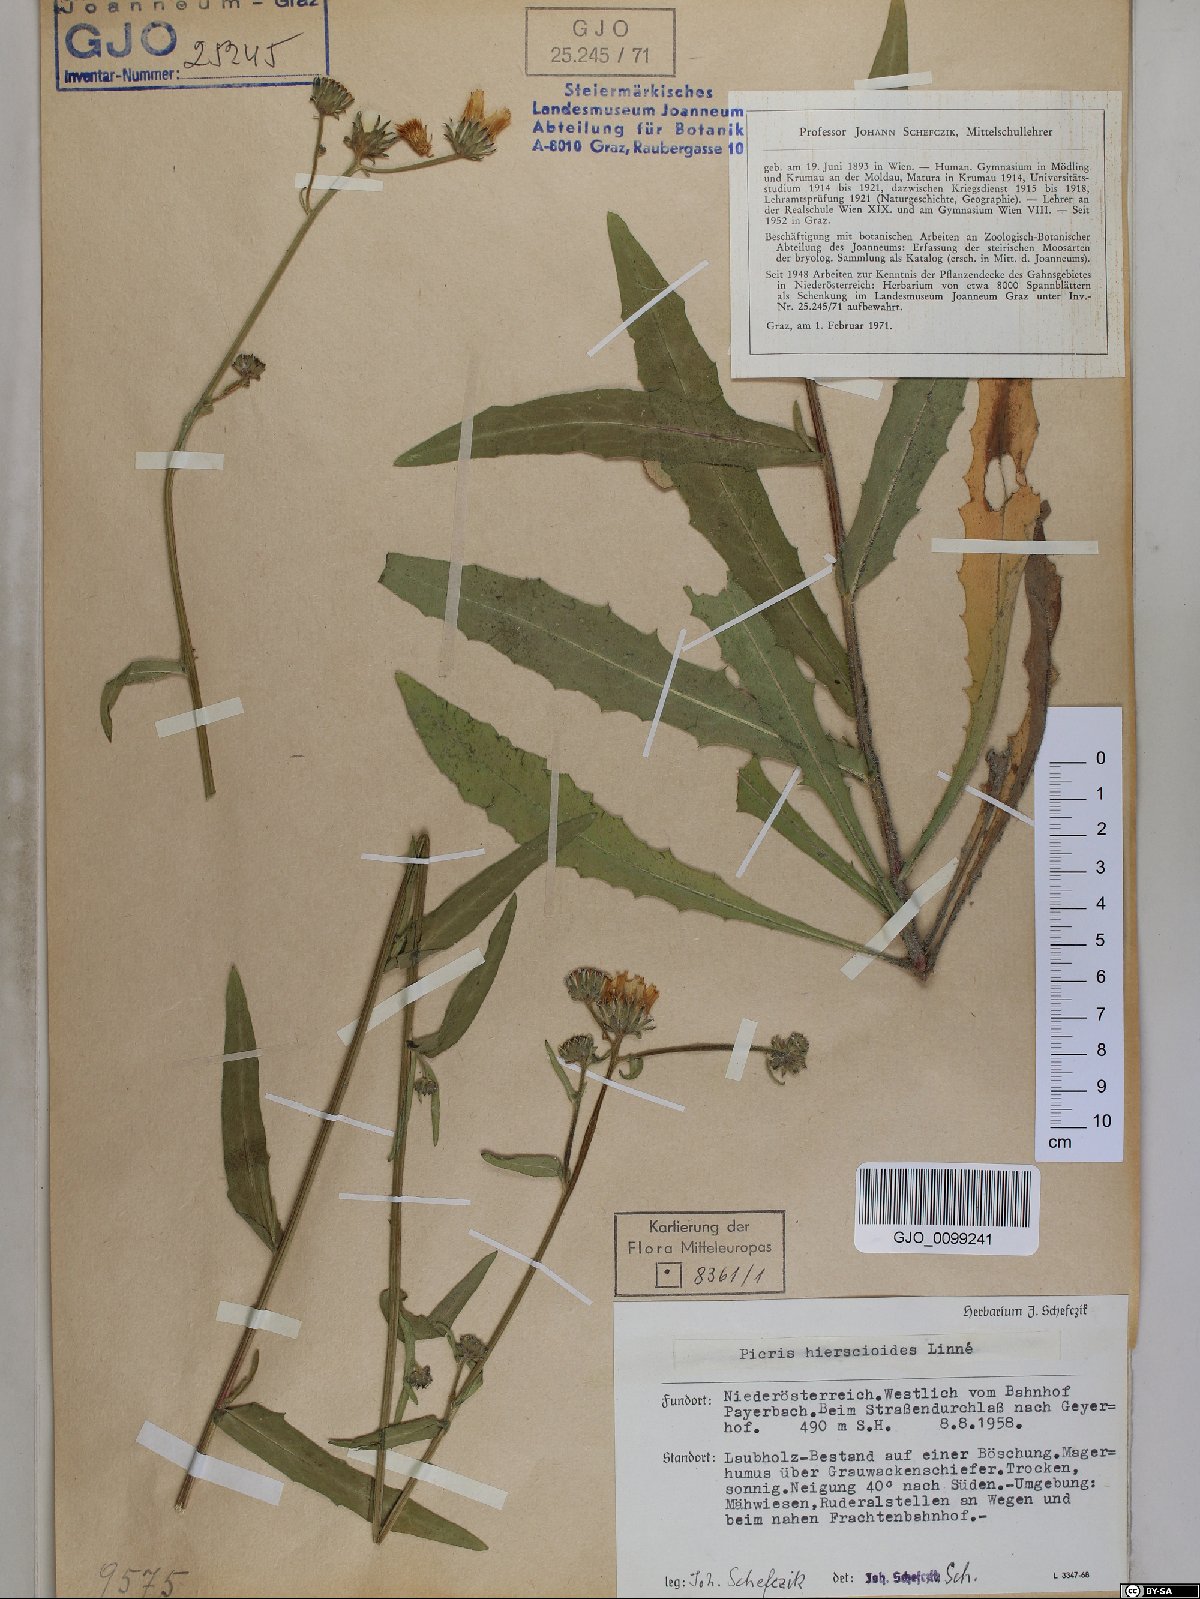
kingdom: Plantae
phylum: Tracheophyta
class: Magnoliopsida
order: Asterales
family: Asteraceae
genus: Picris
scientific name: Picris hieracioides
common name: Hawkweed oxtongue
